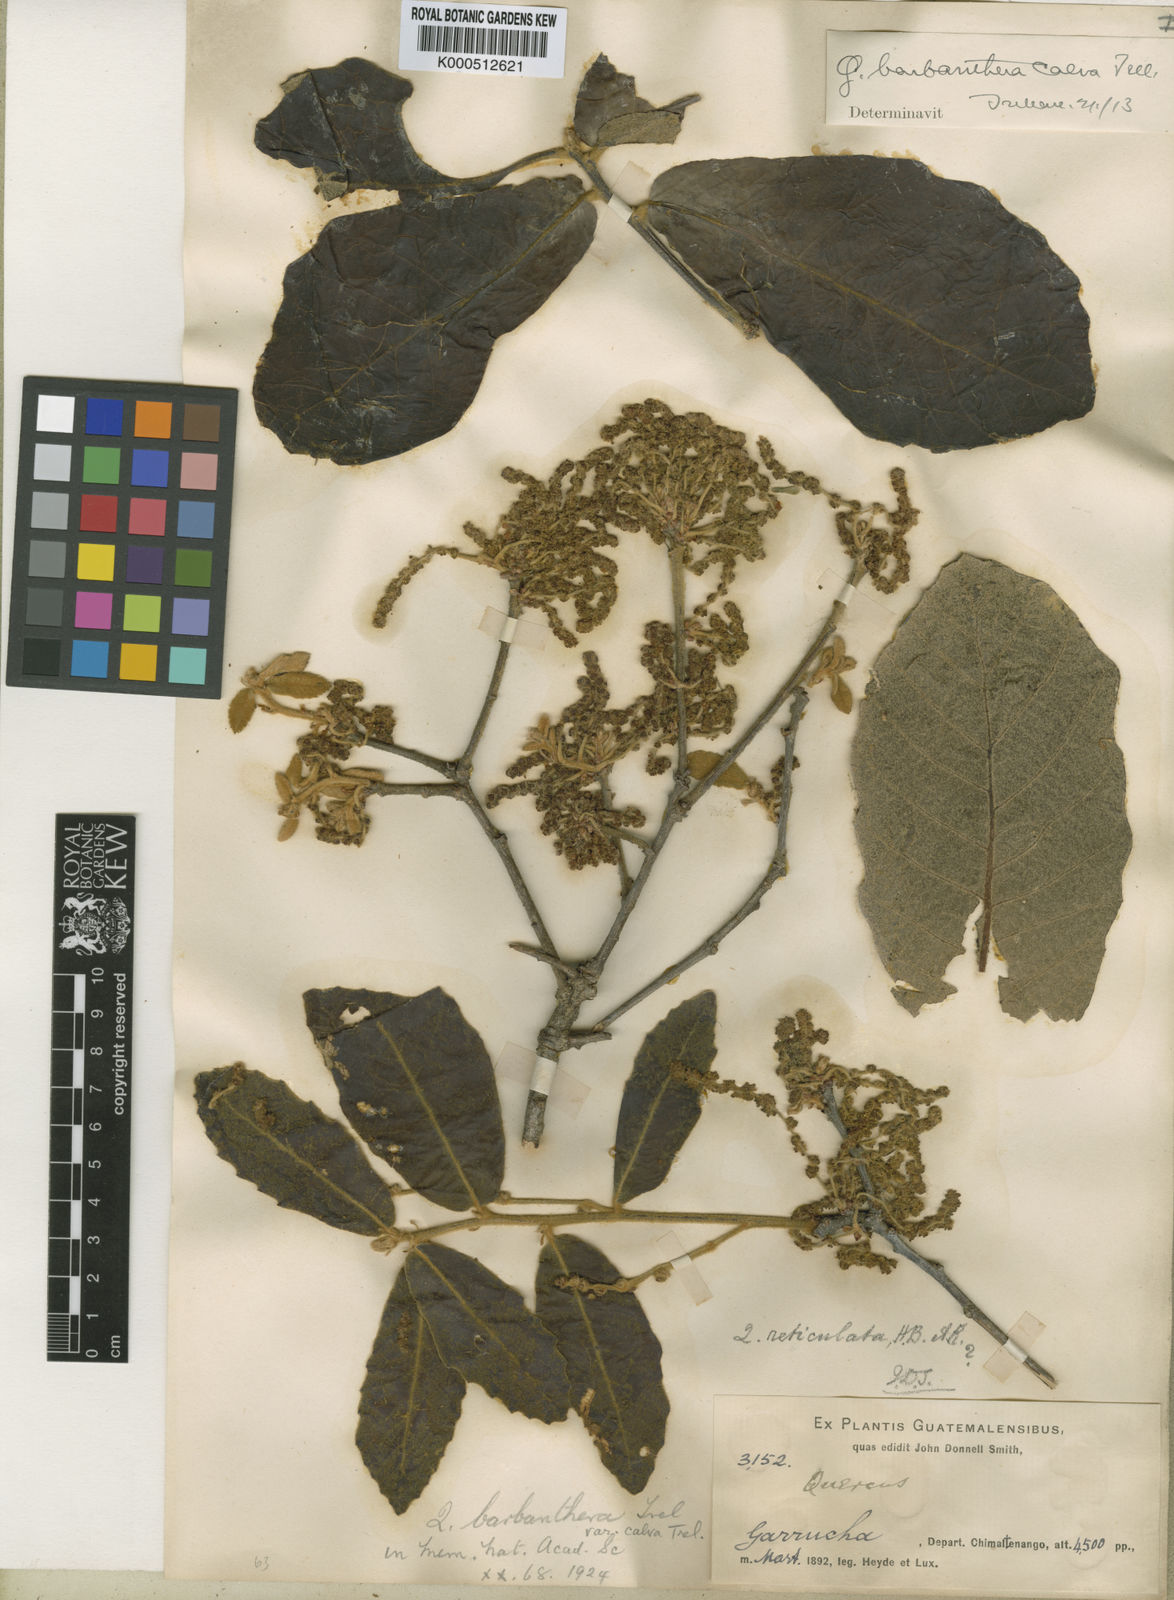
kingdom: Plantae
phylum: Tracheophyta
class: Magnoliopsida
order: Fagales
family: Fagaceae
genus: Quercus
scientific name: Quercus peduncularis
